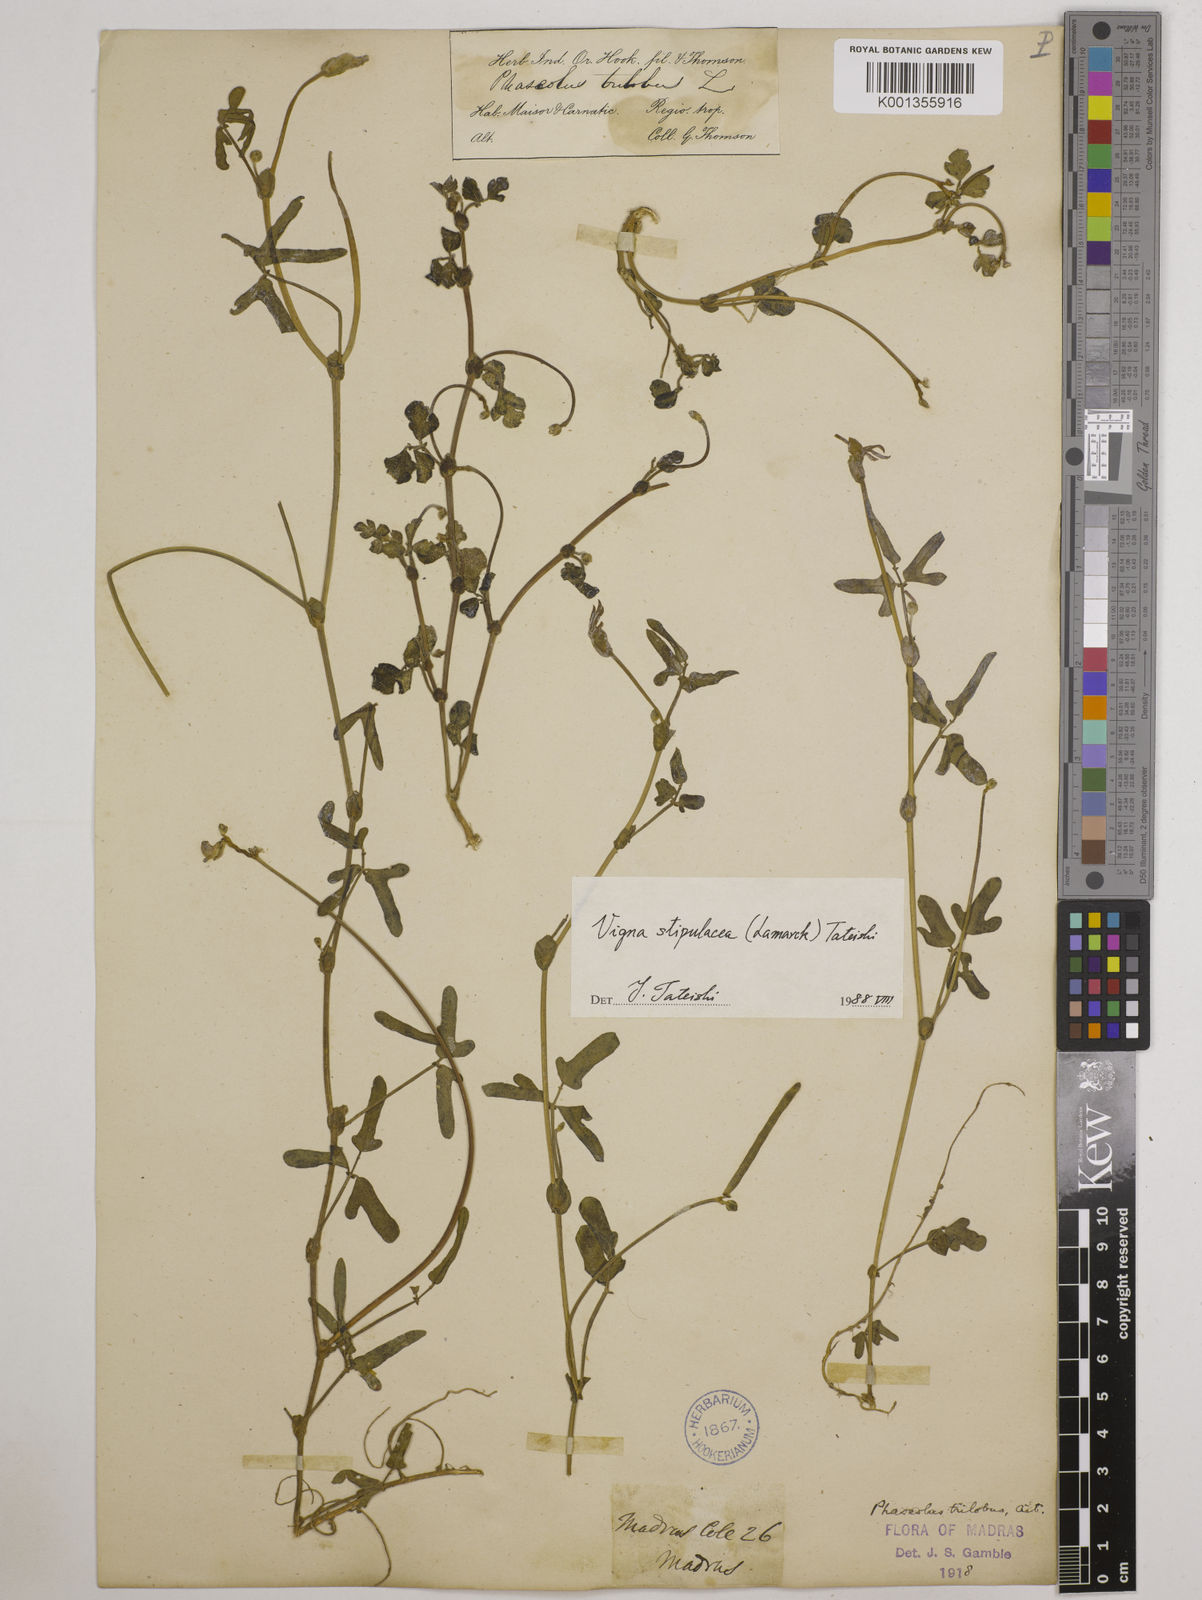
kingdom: Plantae
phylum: Tracheophyta
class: Magnoliopsida
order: Fabales
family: Fabaceae
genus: Pueraria
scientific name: Pueraria montana
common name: Kudzu
